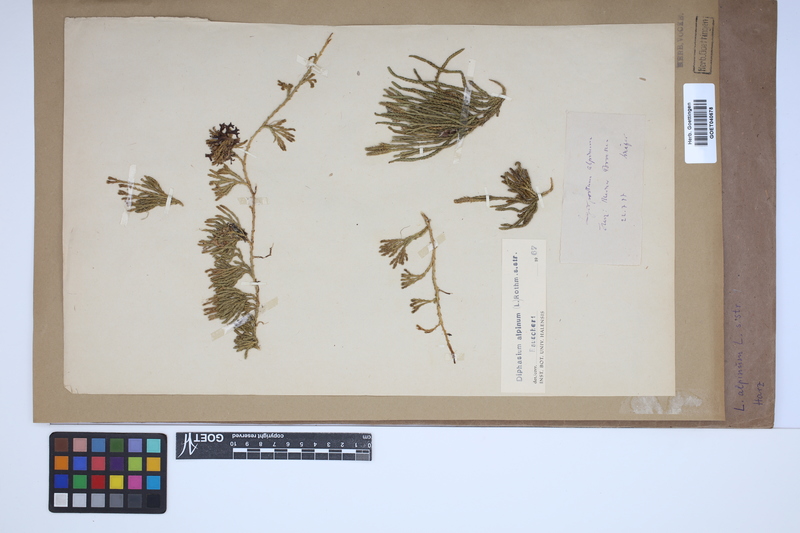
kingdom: Plantae
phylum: Tracheophyta
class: Lycopodiopsida
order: Lycopodiales
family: Lycopodiaceae
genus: Diphasiastrum
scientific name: Diphasiastrum alpinum
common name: Alpine clubmoss
